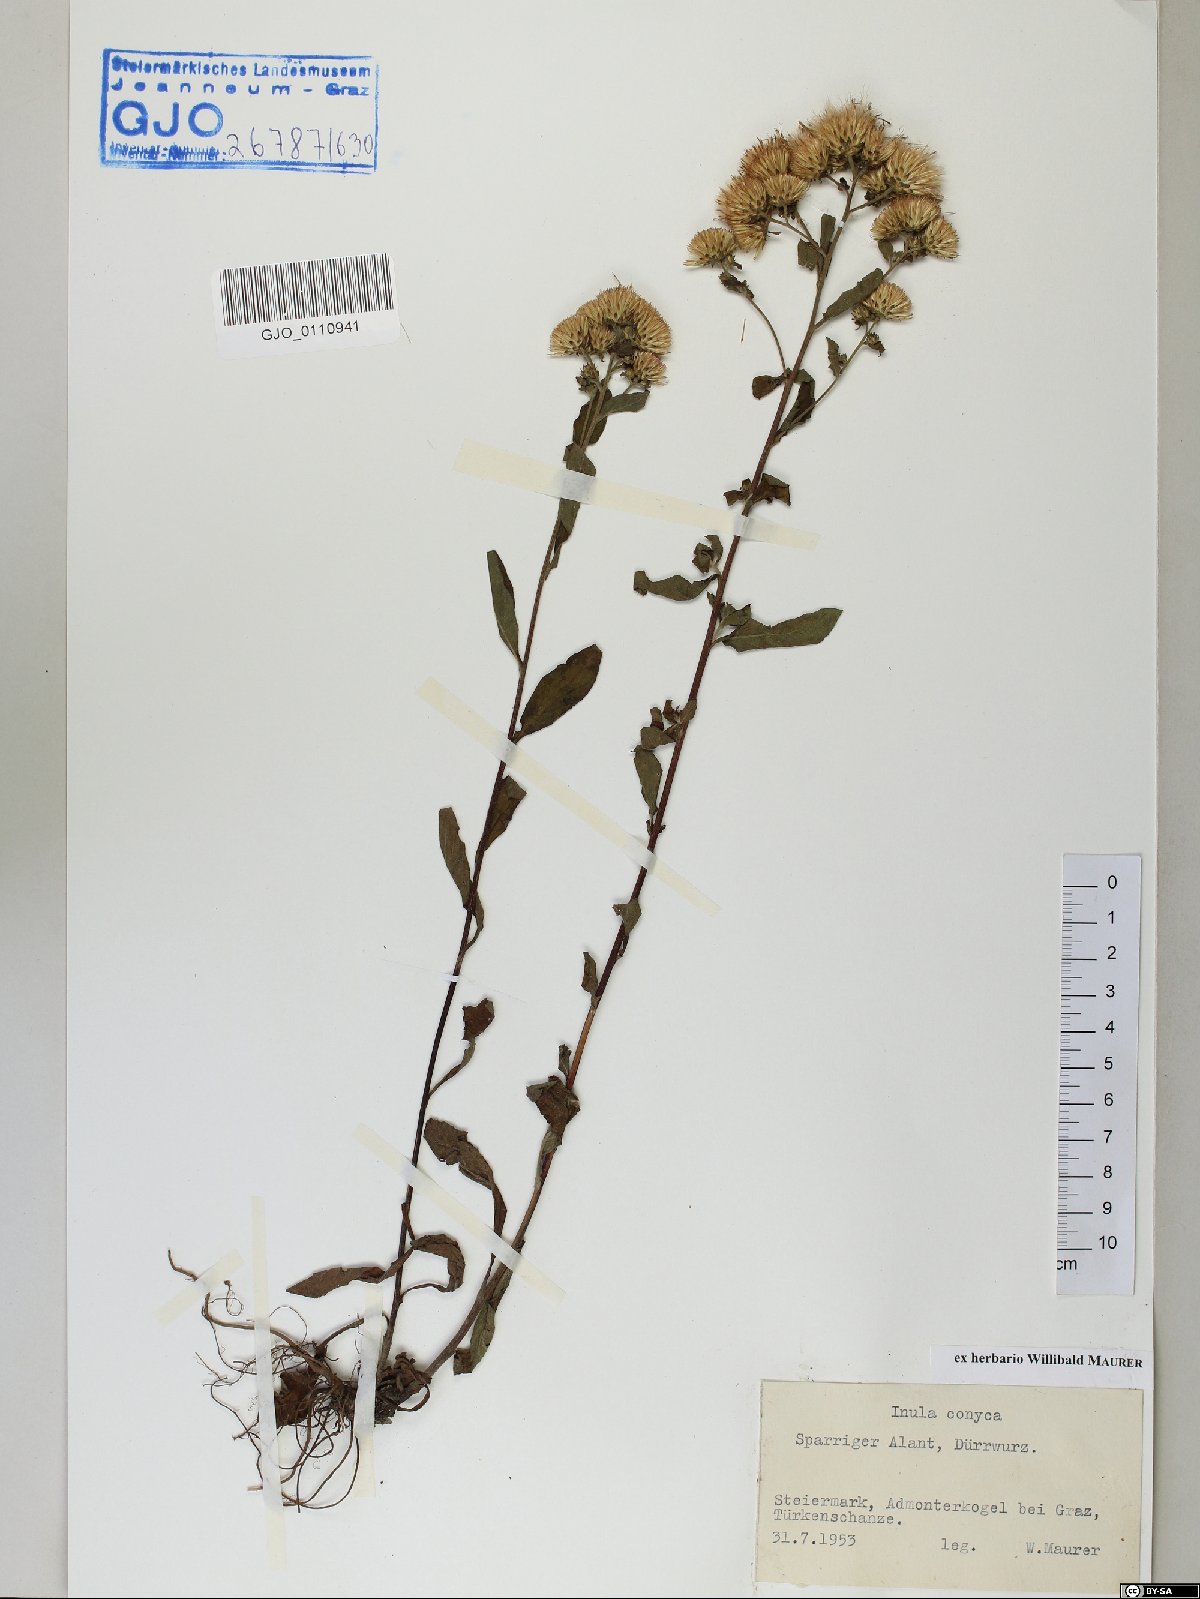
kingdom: Plantae
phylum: Tracheophyta
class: Magnoliopsida
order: Asterales
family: Asteraceae
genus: Pentanema
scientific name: Pentanema squarrosum
